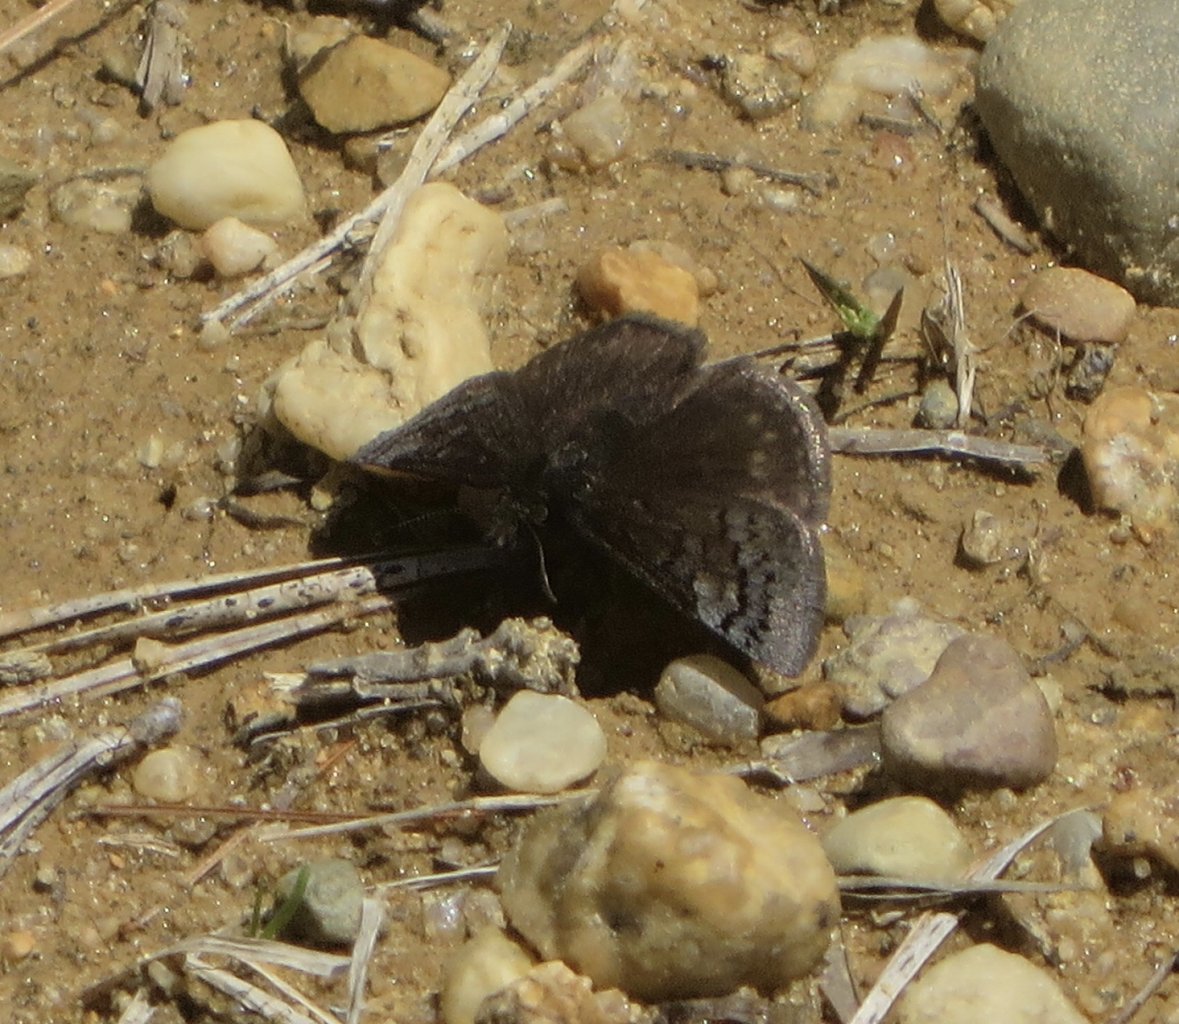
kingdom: Animalia
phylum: Arthropoda
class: Insecta
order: Lepidoptera
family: Hesperiidae
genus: Erynnis
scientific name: Erynnis brizo
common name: Sleepy Duskywing
